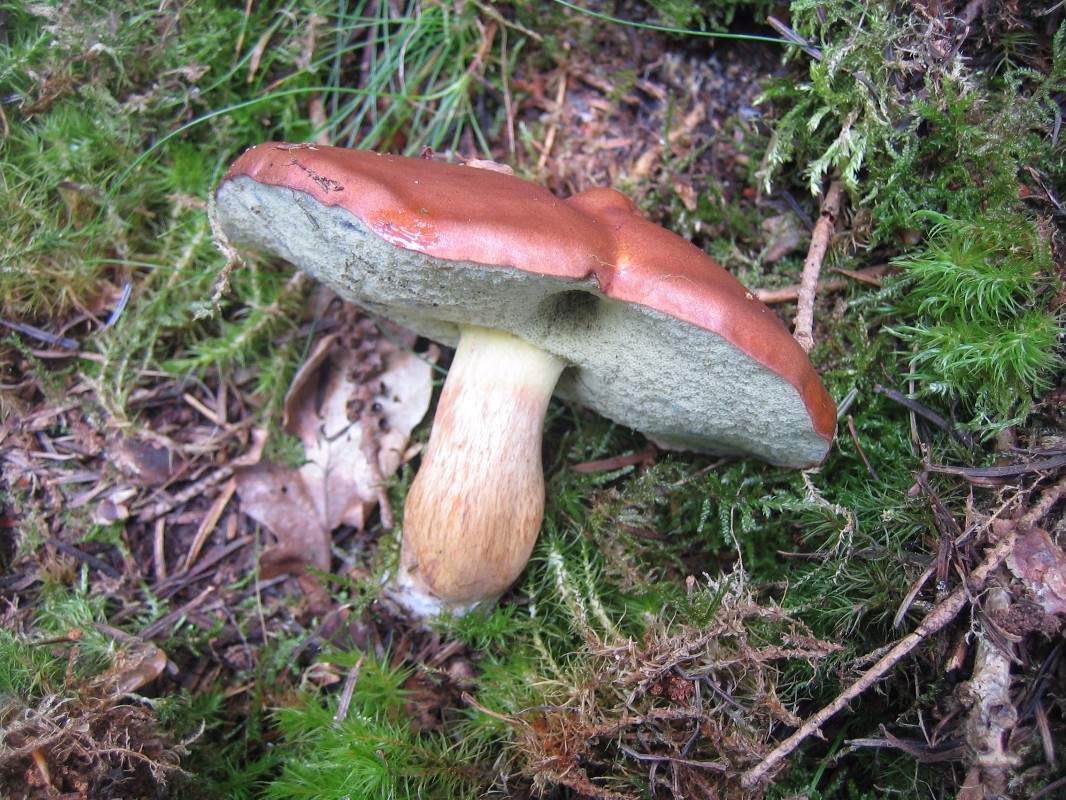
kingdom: Fungi
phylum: Basidiomycota
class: Agaricomycetes
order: Boletales
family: Boletaceae
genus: Imleria
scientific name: Imleria badia
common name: brunstokket rørhat
